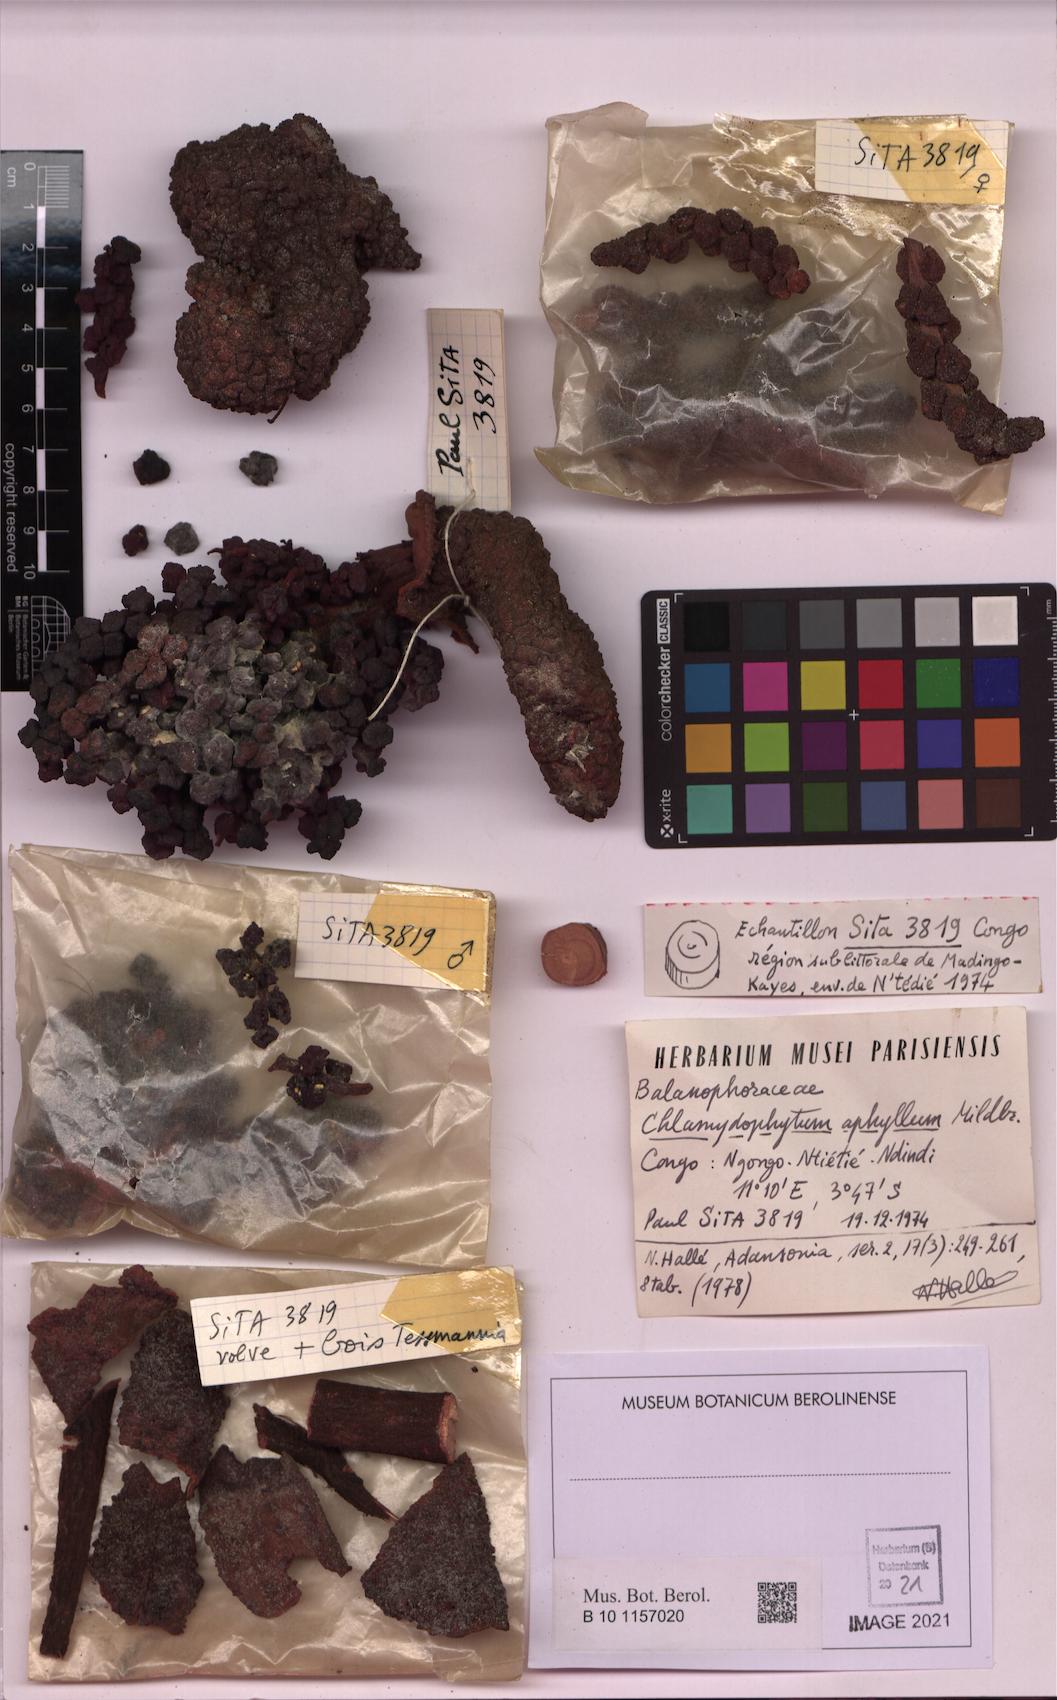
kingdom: Plantae
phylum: Tracheophyta
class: Magnoliopsida
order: Santalales
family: Balanophoraceae
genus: Chlamydophytum
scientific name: Chlamydophytum aphyllum
